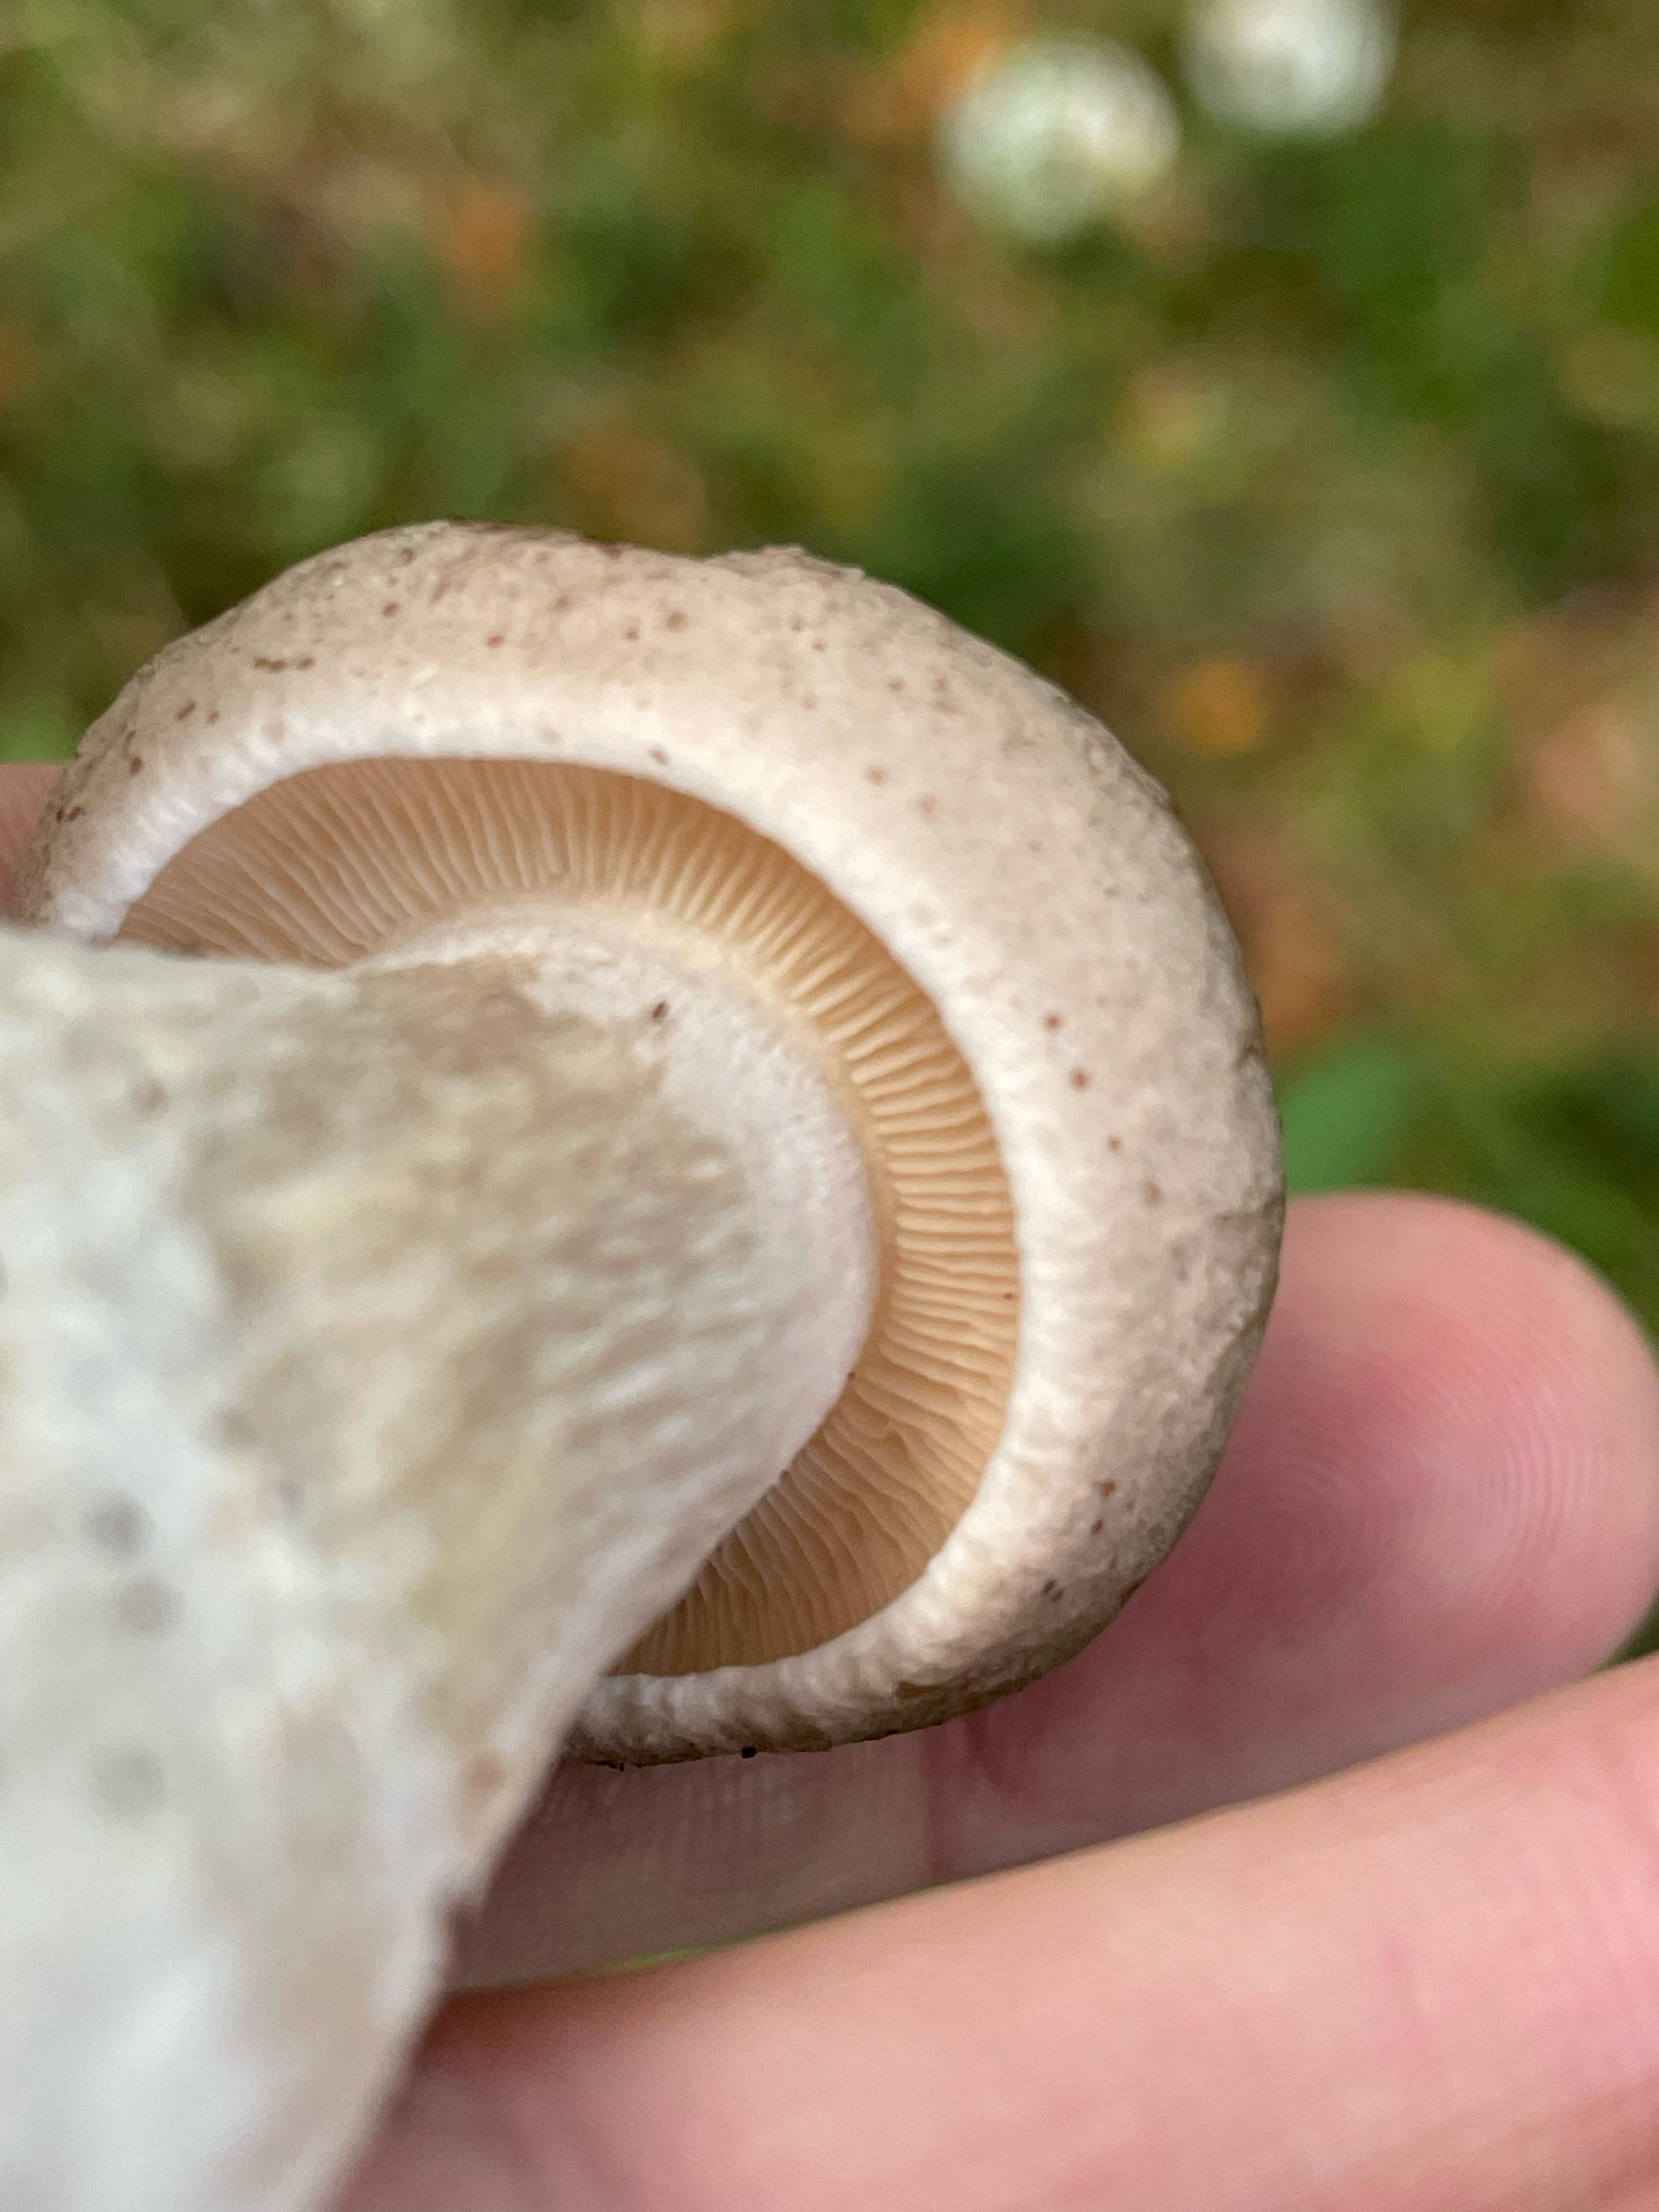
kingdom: Fungi
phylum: Basidiomycota
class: Agaricomycetes
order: Agaricales
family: Tricholomataceae
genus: Clitocybe
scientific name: Clitocybe nebularis
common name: tåge-tragthat
